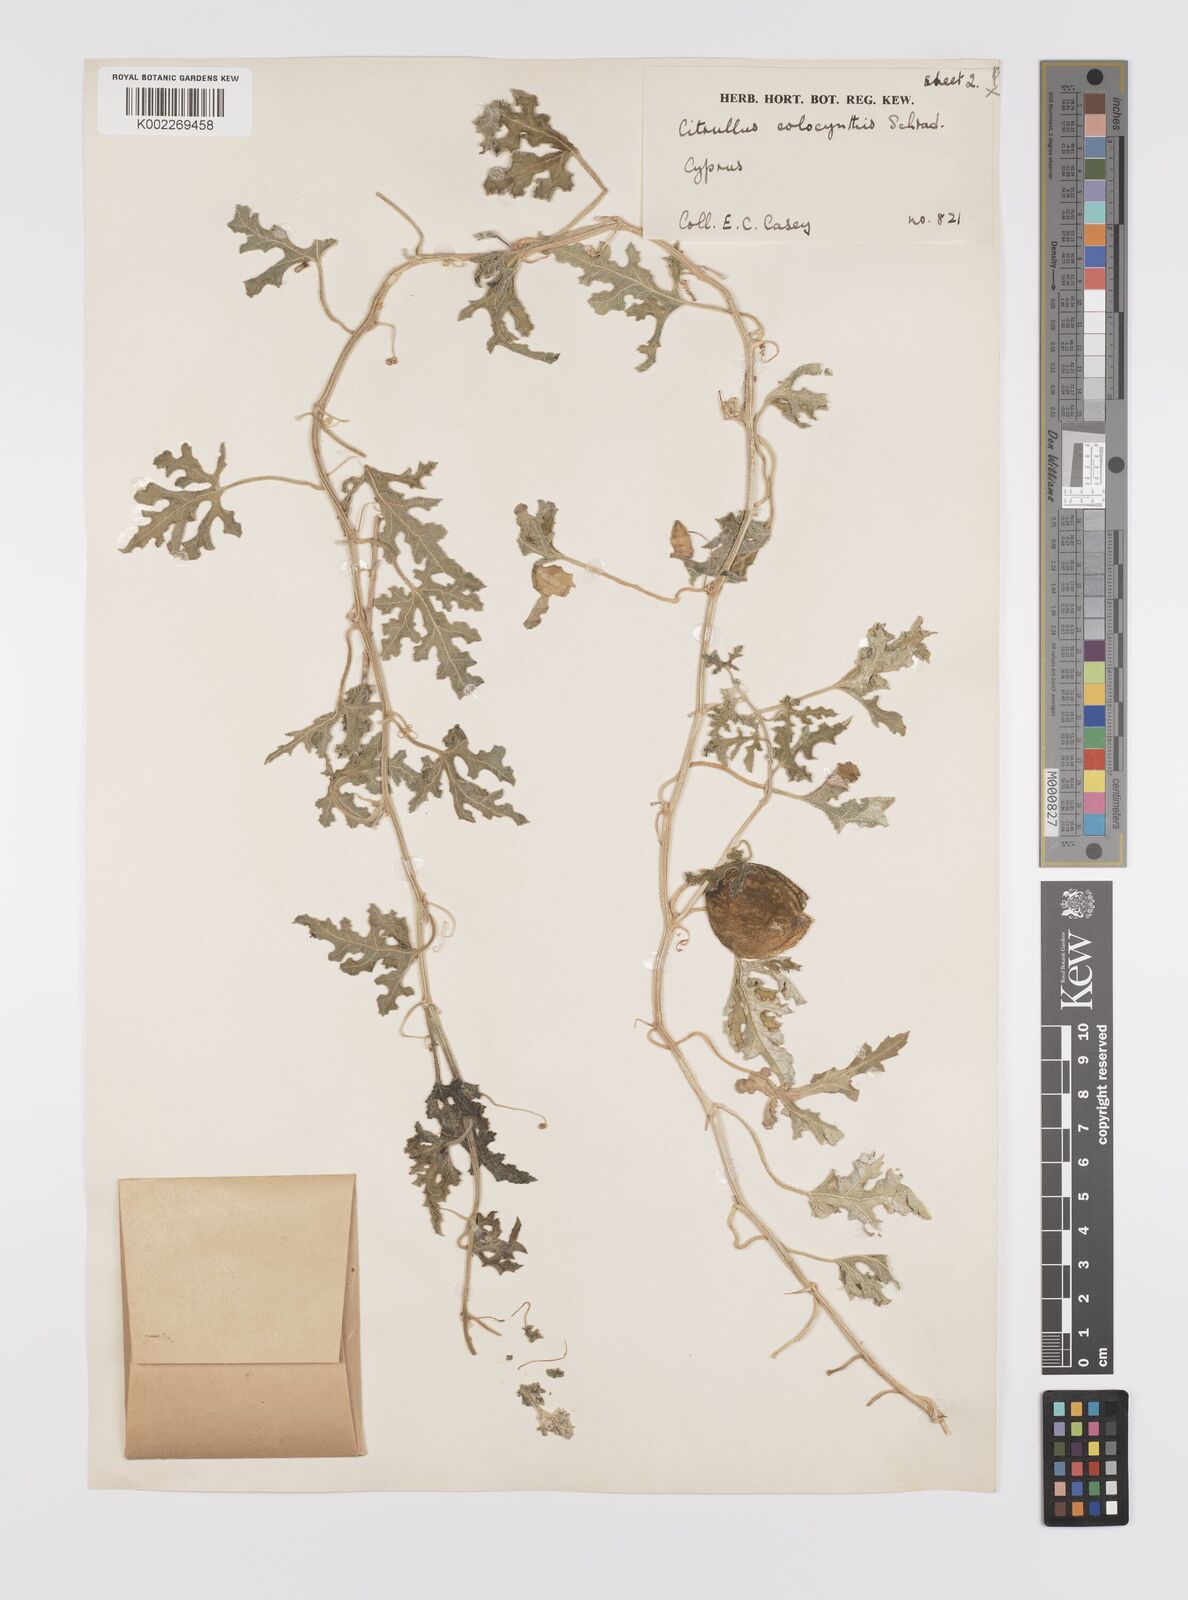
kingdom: Plantae
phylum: Tracheophyta
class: Magnoliopsida
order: Cucurbitales
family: Cucurbitaceae
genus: Citrullus
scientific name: Citrullus colocynthis
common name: Colocynth
